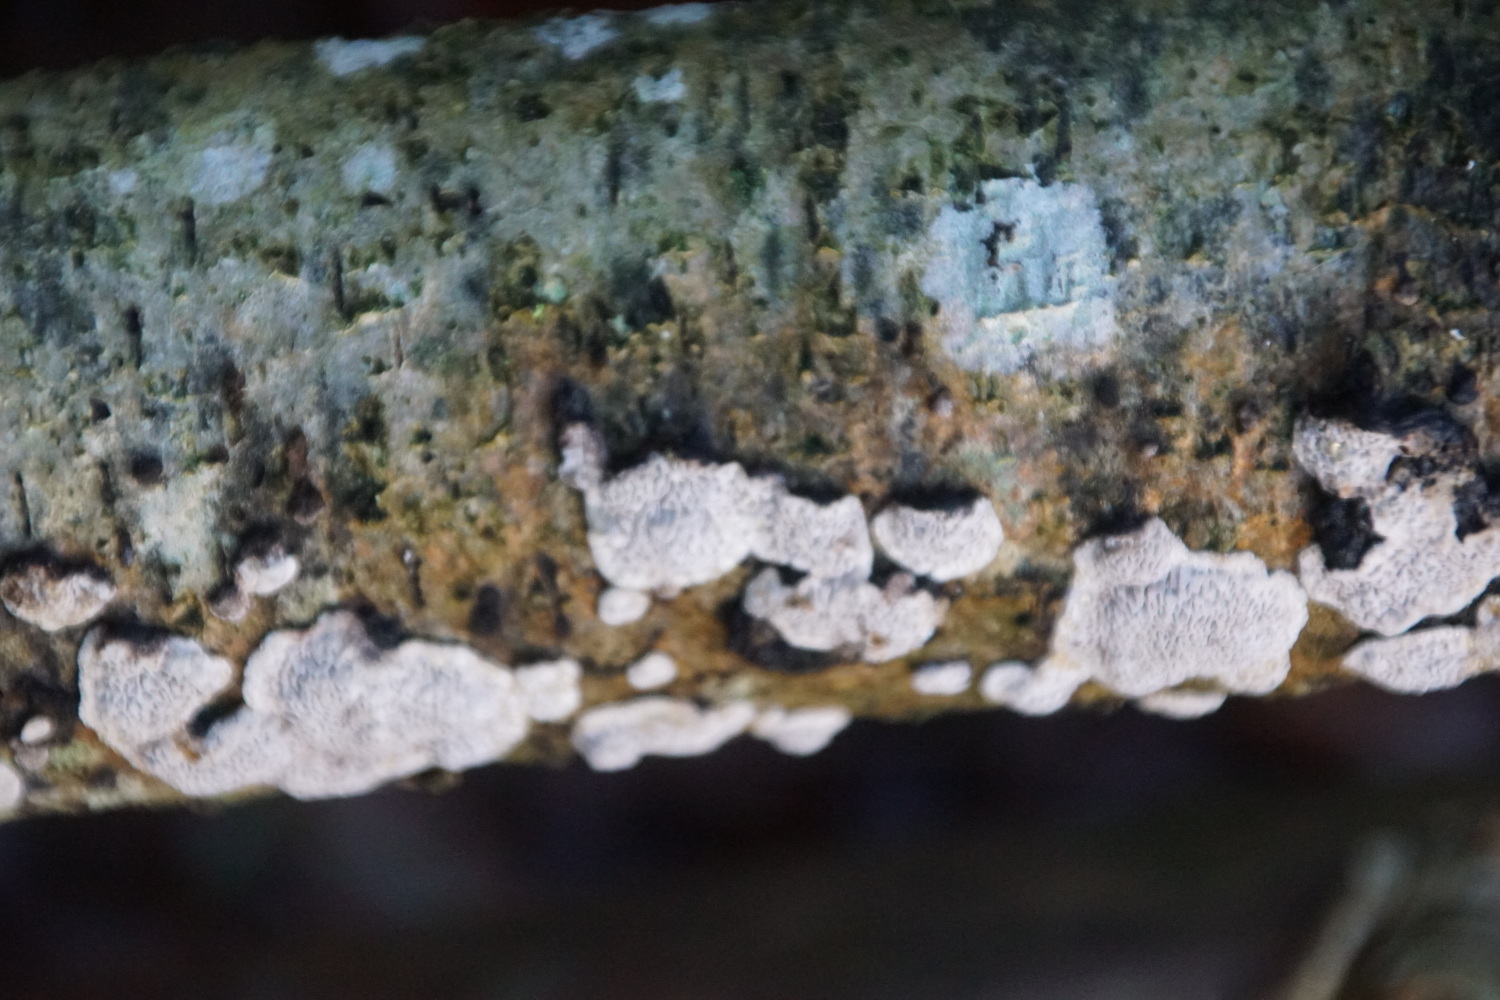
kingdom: Fungi
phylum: Basidiomycota
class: Agaricomycetes
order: Polyporales
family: Polyporaceae
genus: Podofomes
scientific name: Podofomes mollis
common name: blød begporesvamp
